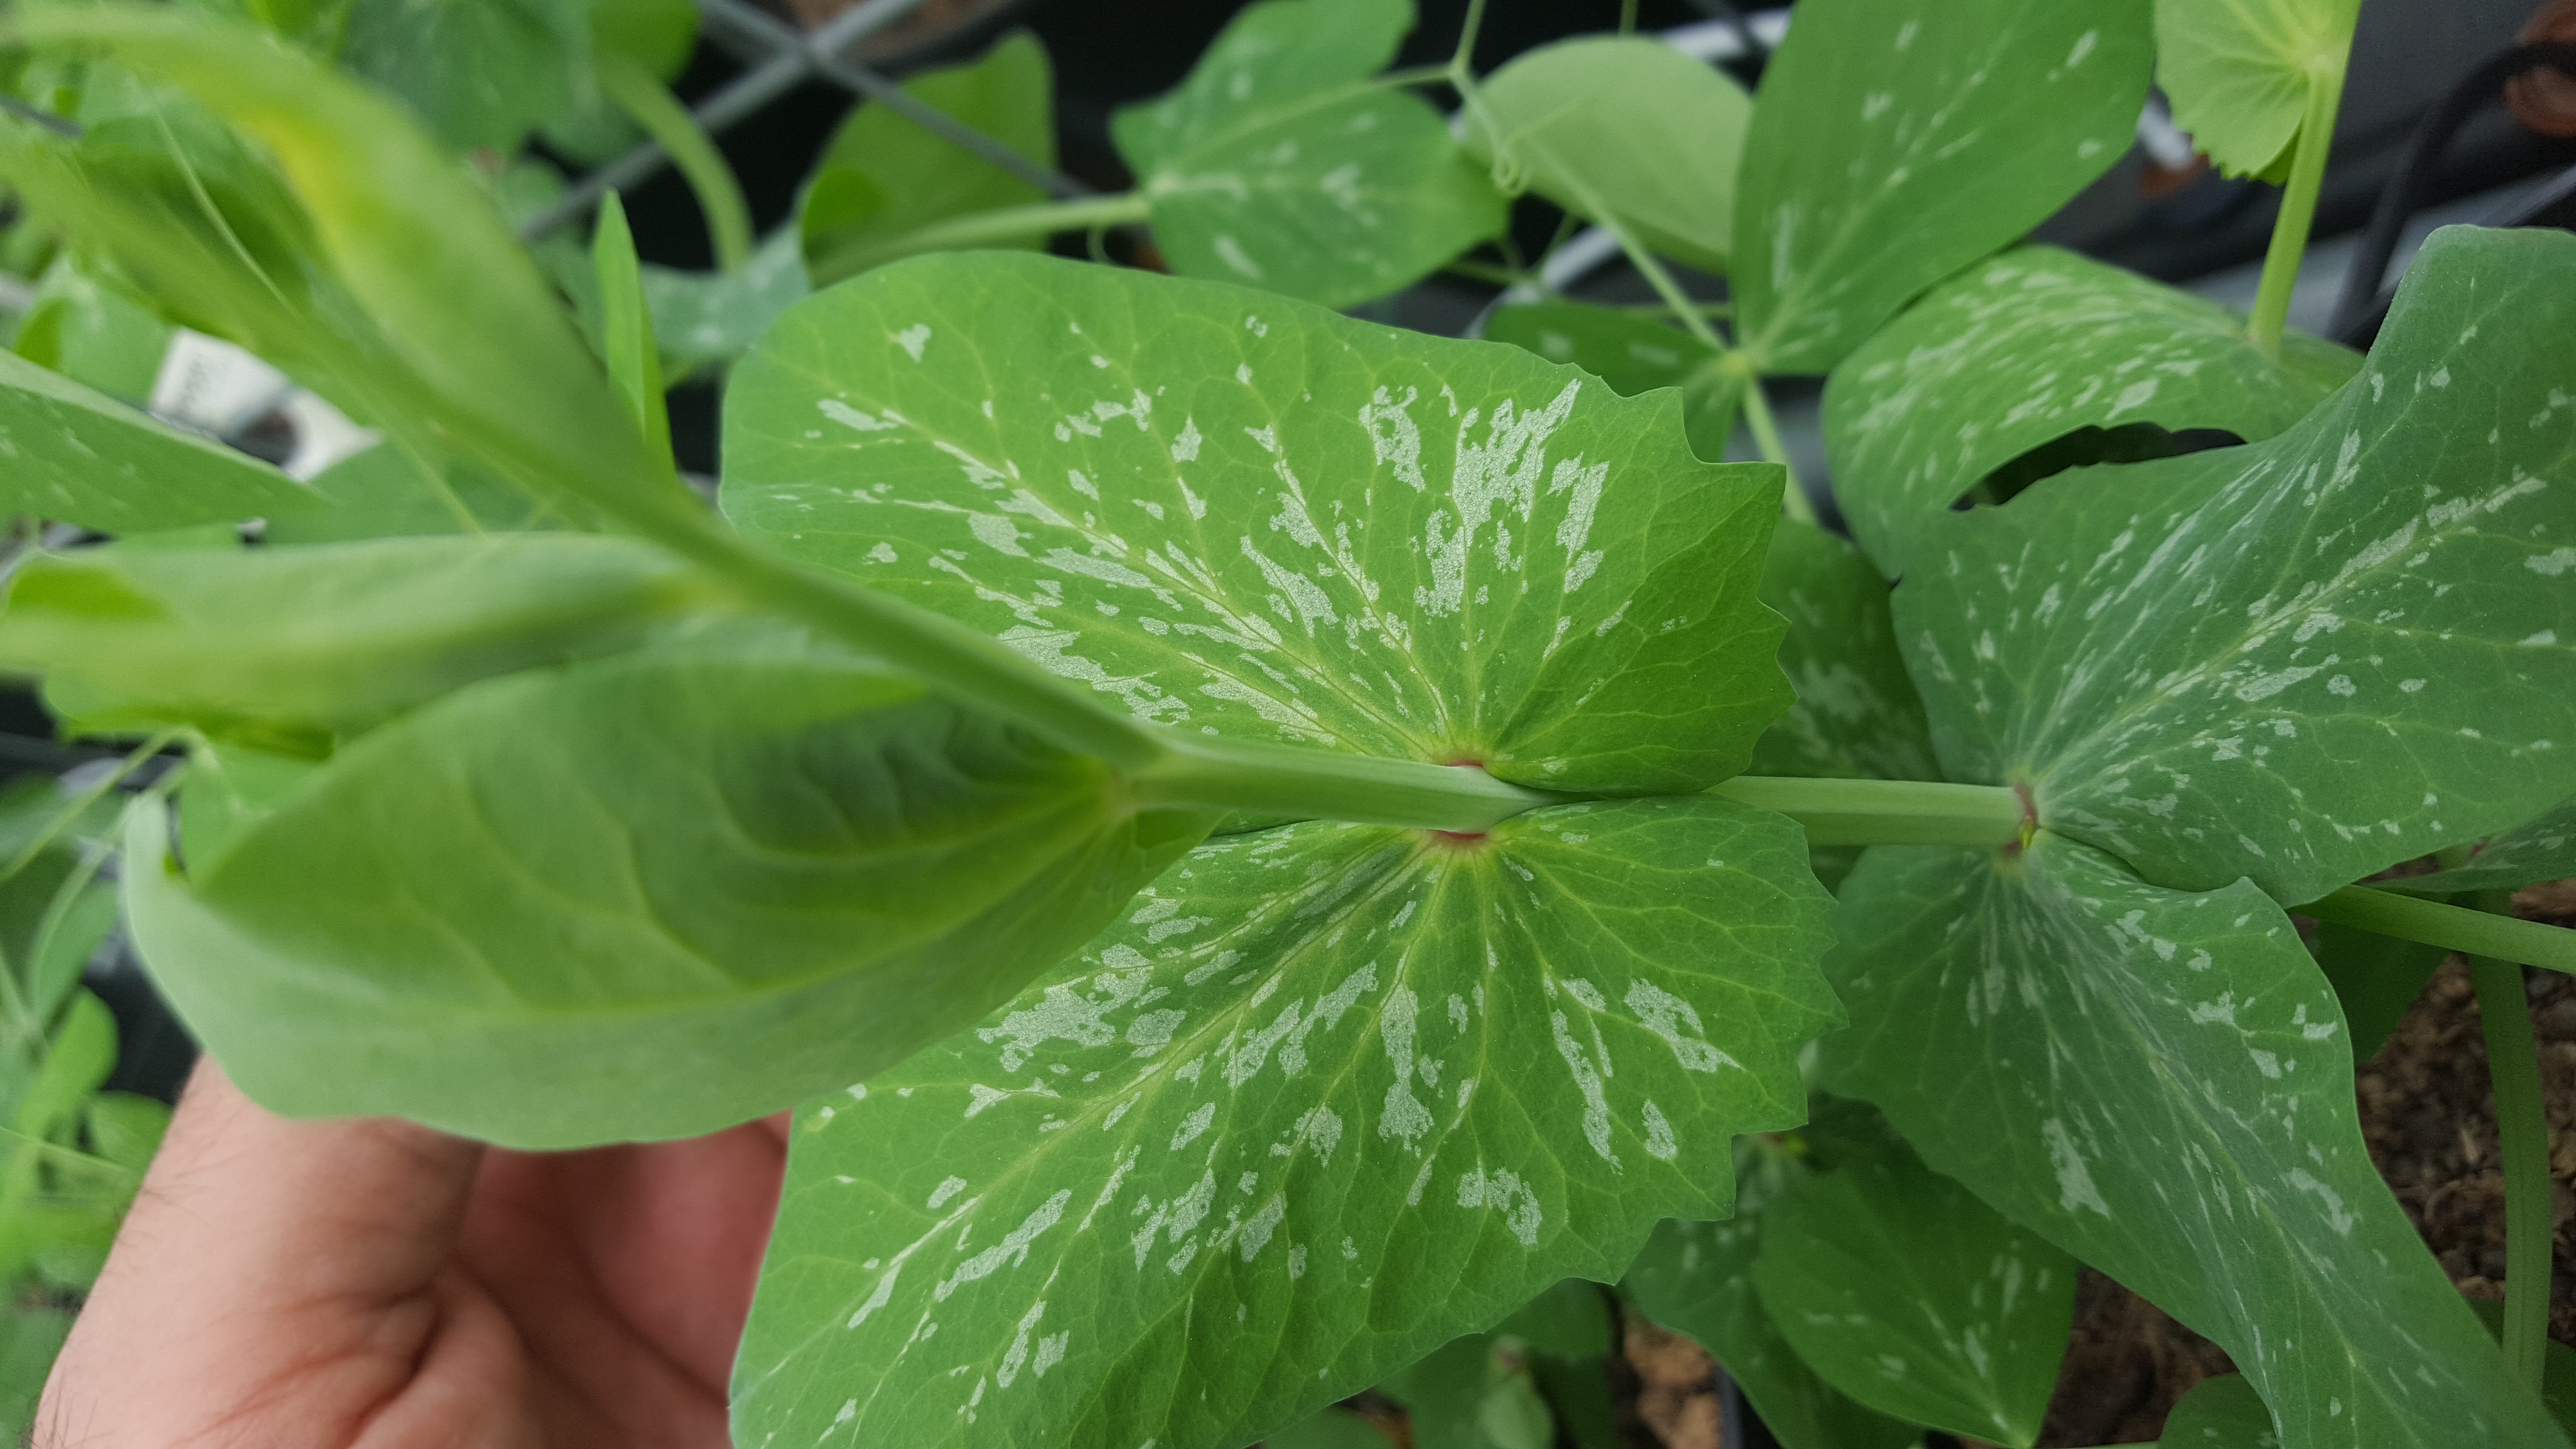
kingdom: Plantae
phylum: Tracheophyta
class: Magnoliopsida
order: Fabales
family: Fabaceae
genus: Lathyrus
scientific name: Lathyrus oleraceus
